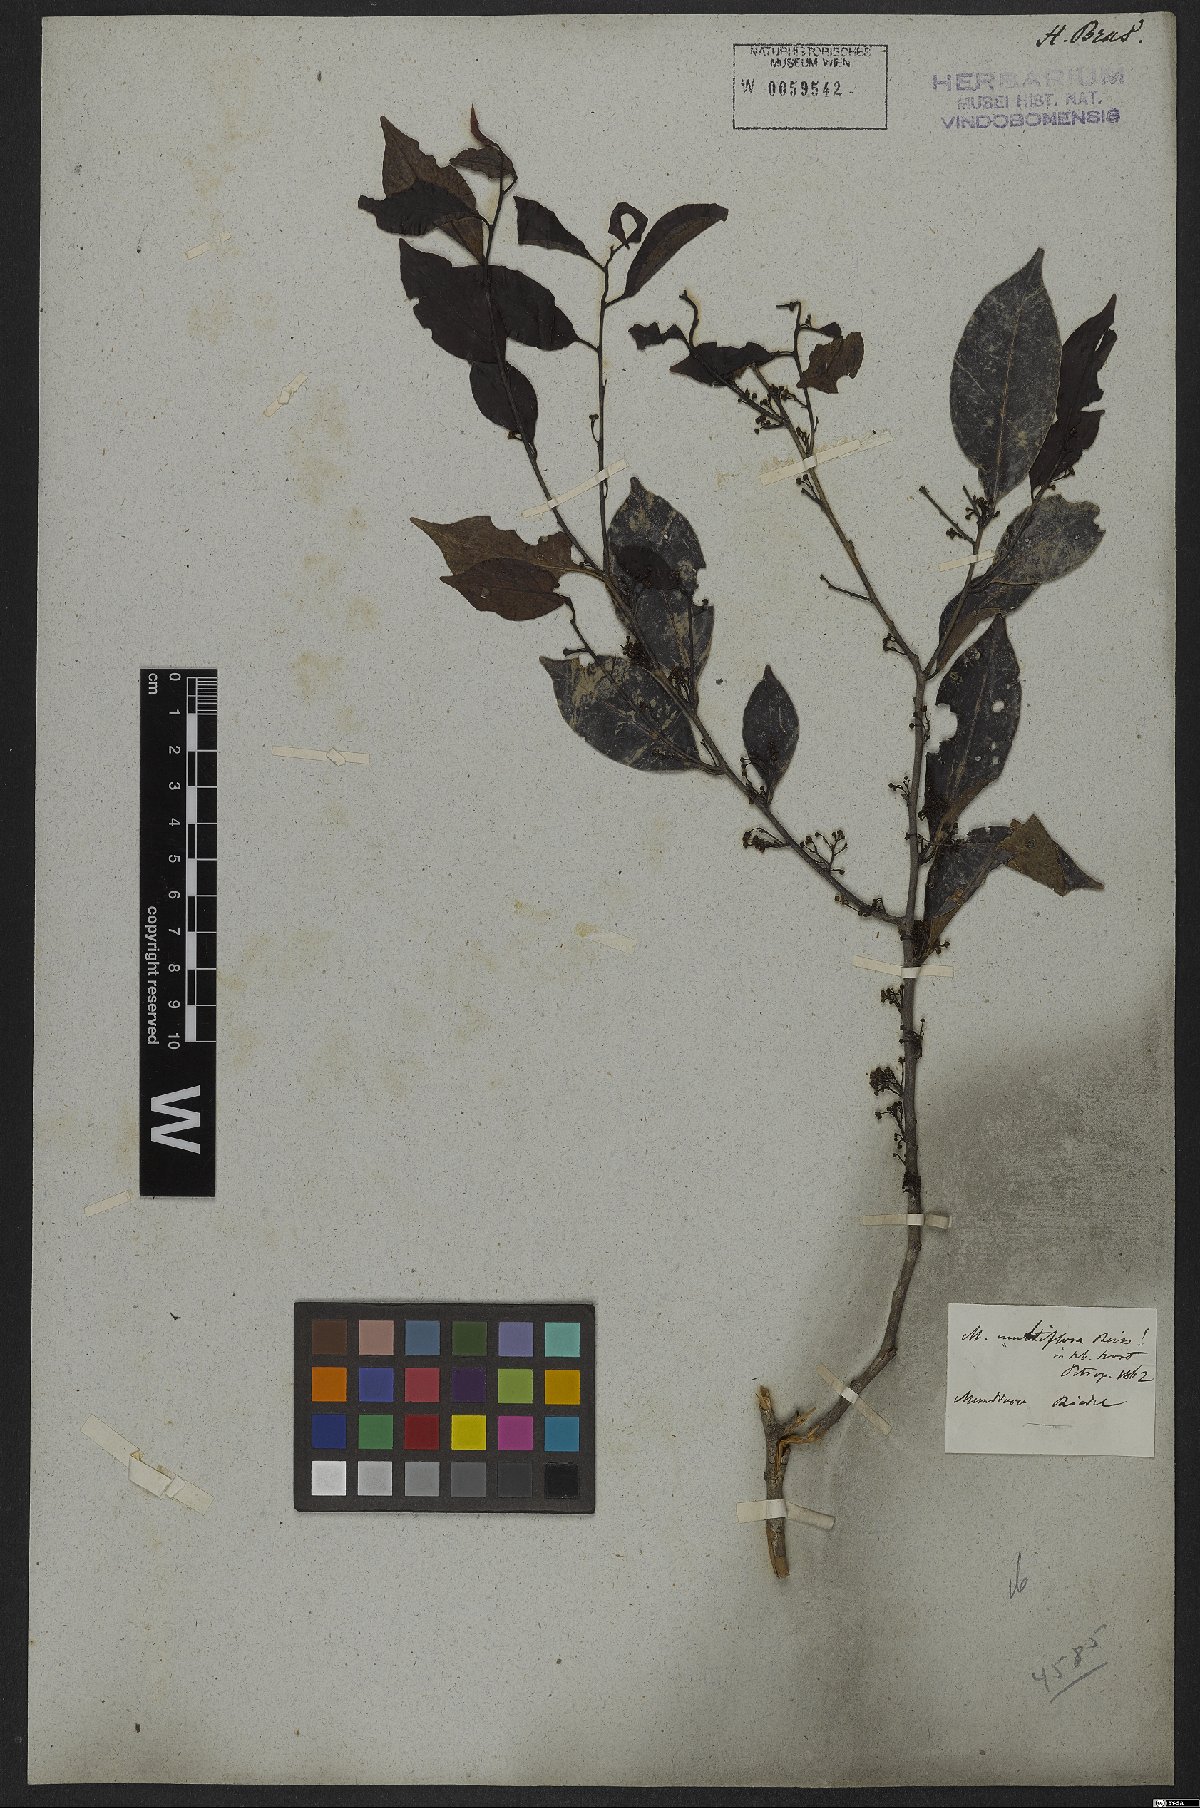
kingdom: Plantae
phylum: Tracheophyta
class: Magnoliopsida
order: Celastrales
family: Celastraceae
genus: Monteverdia
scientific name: Monteverdia macrocarpa
